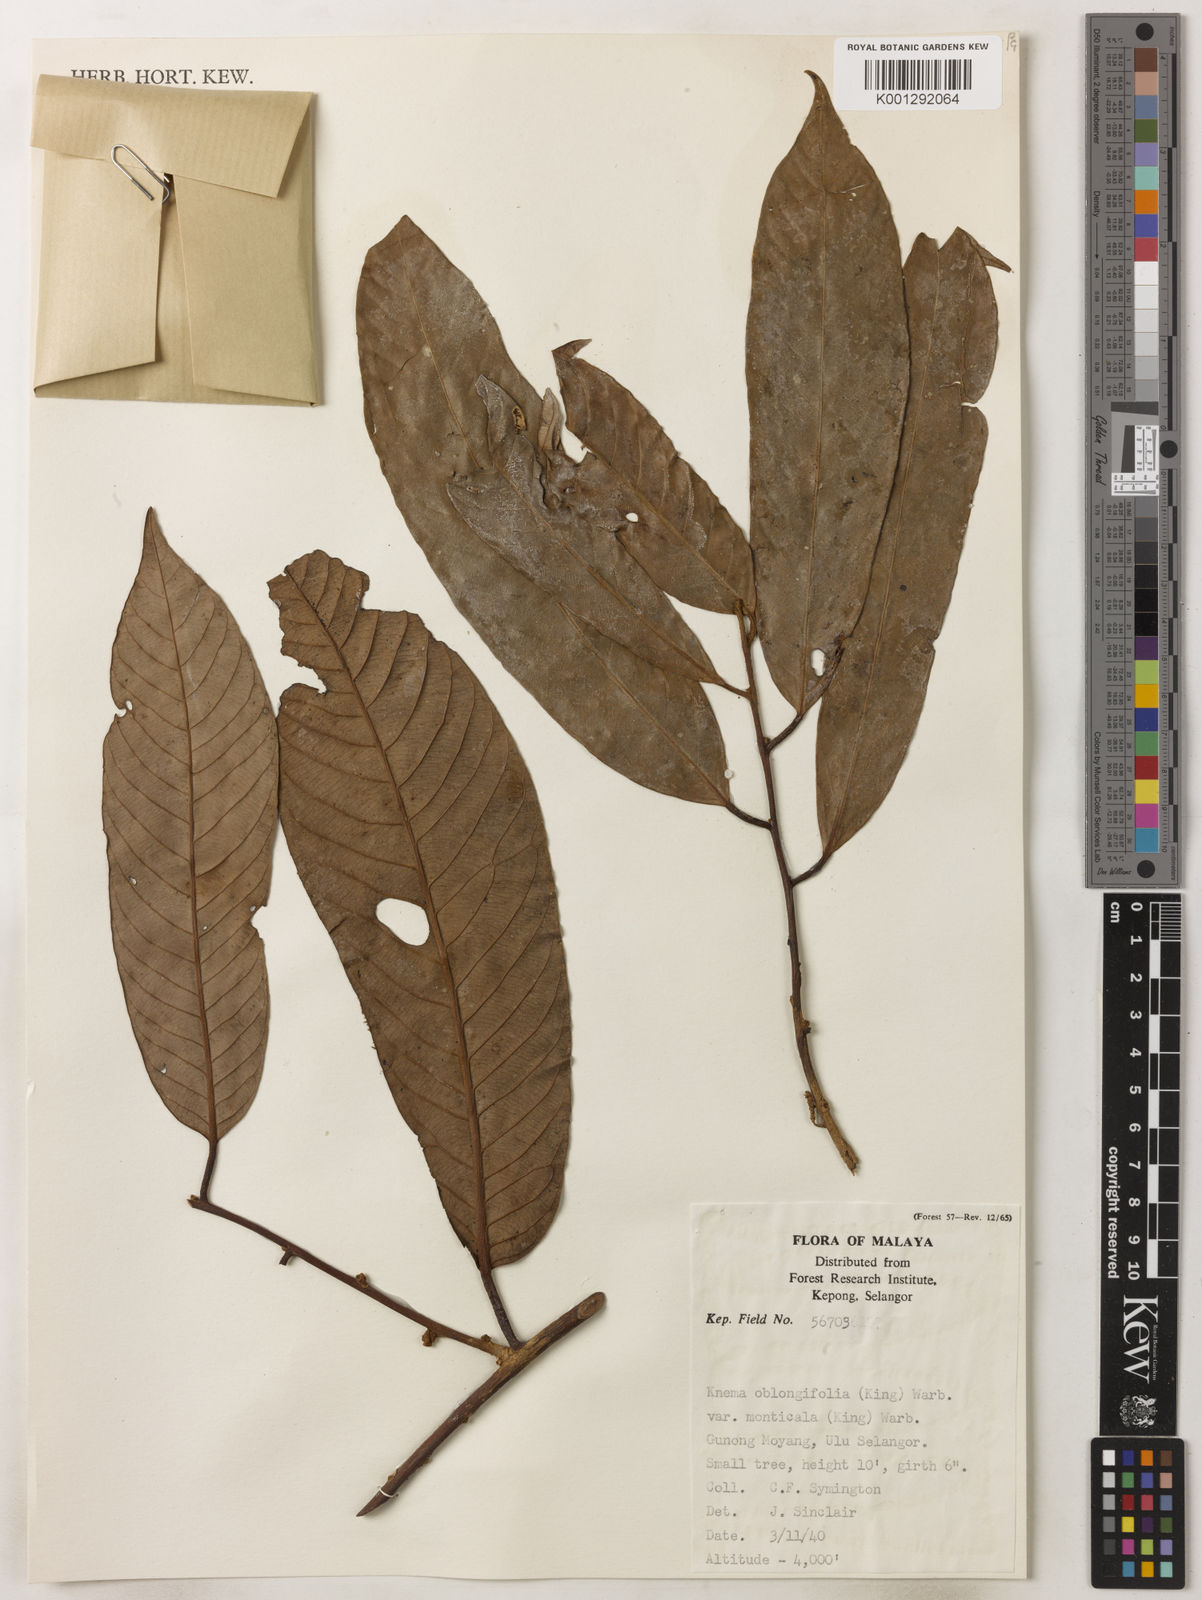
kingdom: Plantae
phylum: Tracheophyta
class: Magnoliopsida
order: Magnoliales
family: Myristicaceae
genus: Knema
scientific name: Knema
